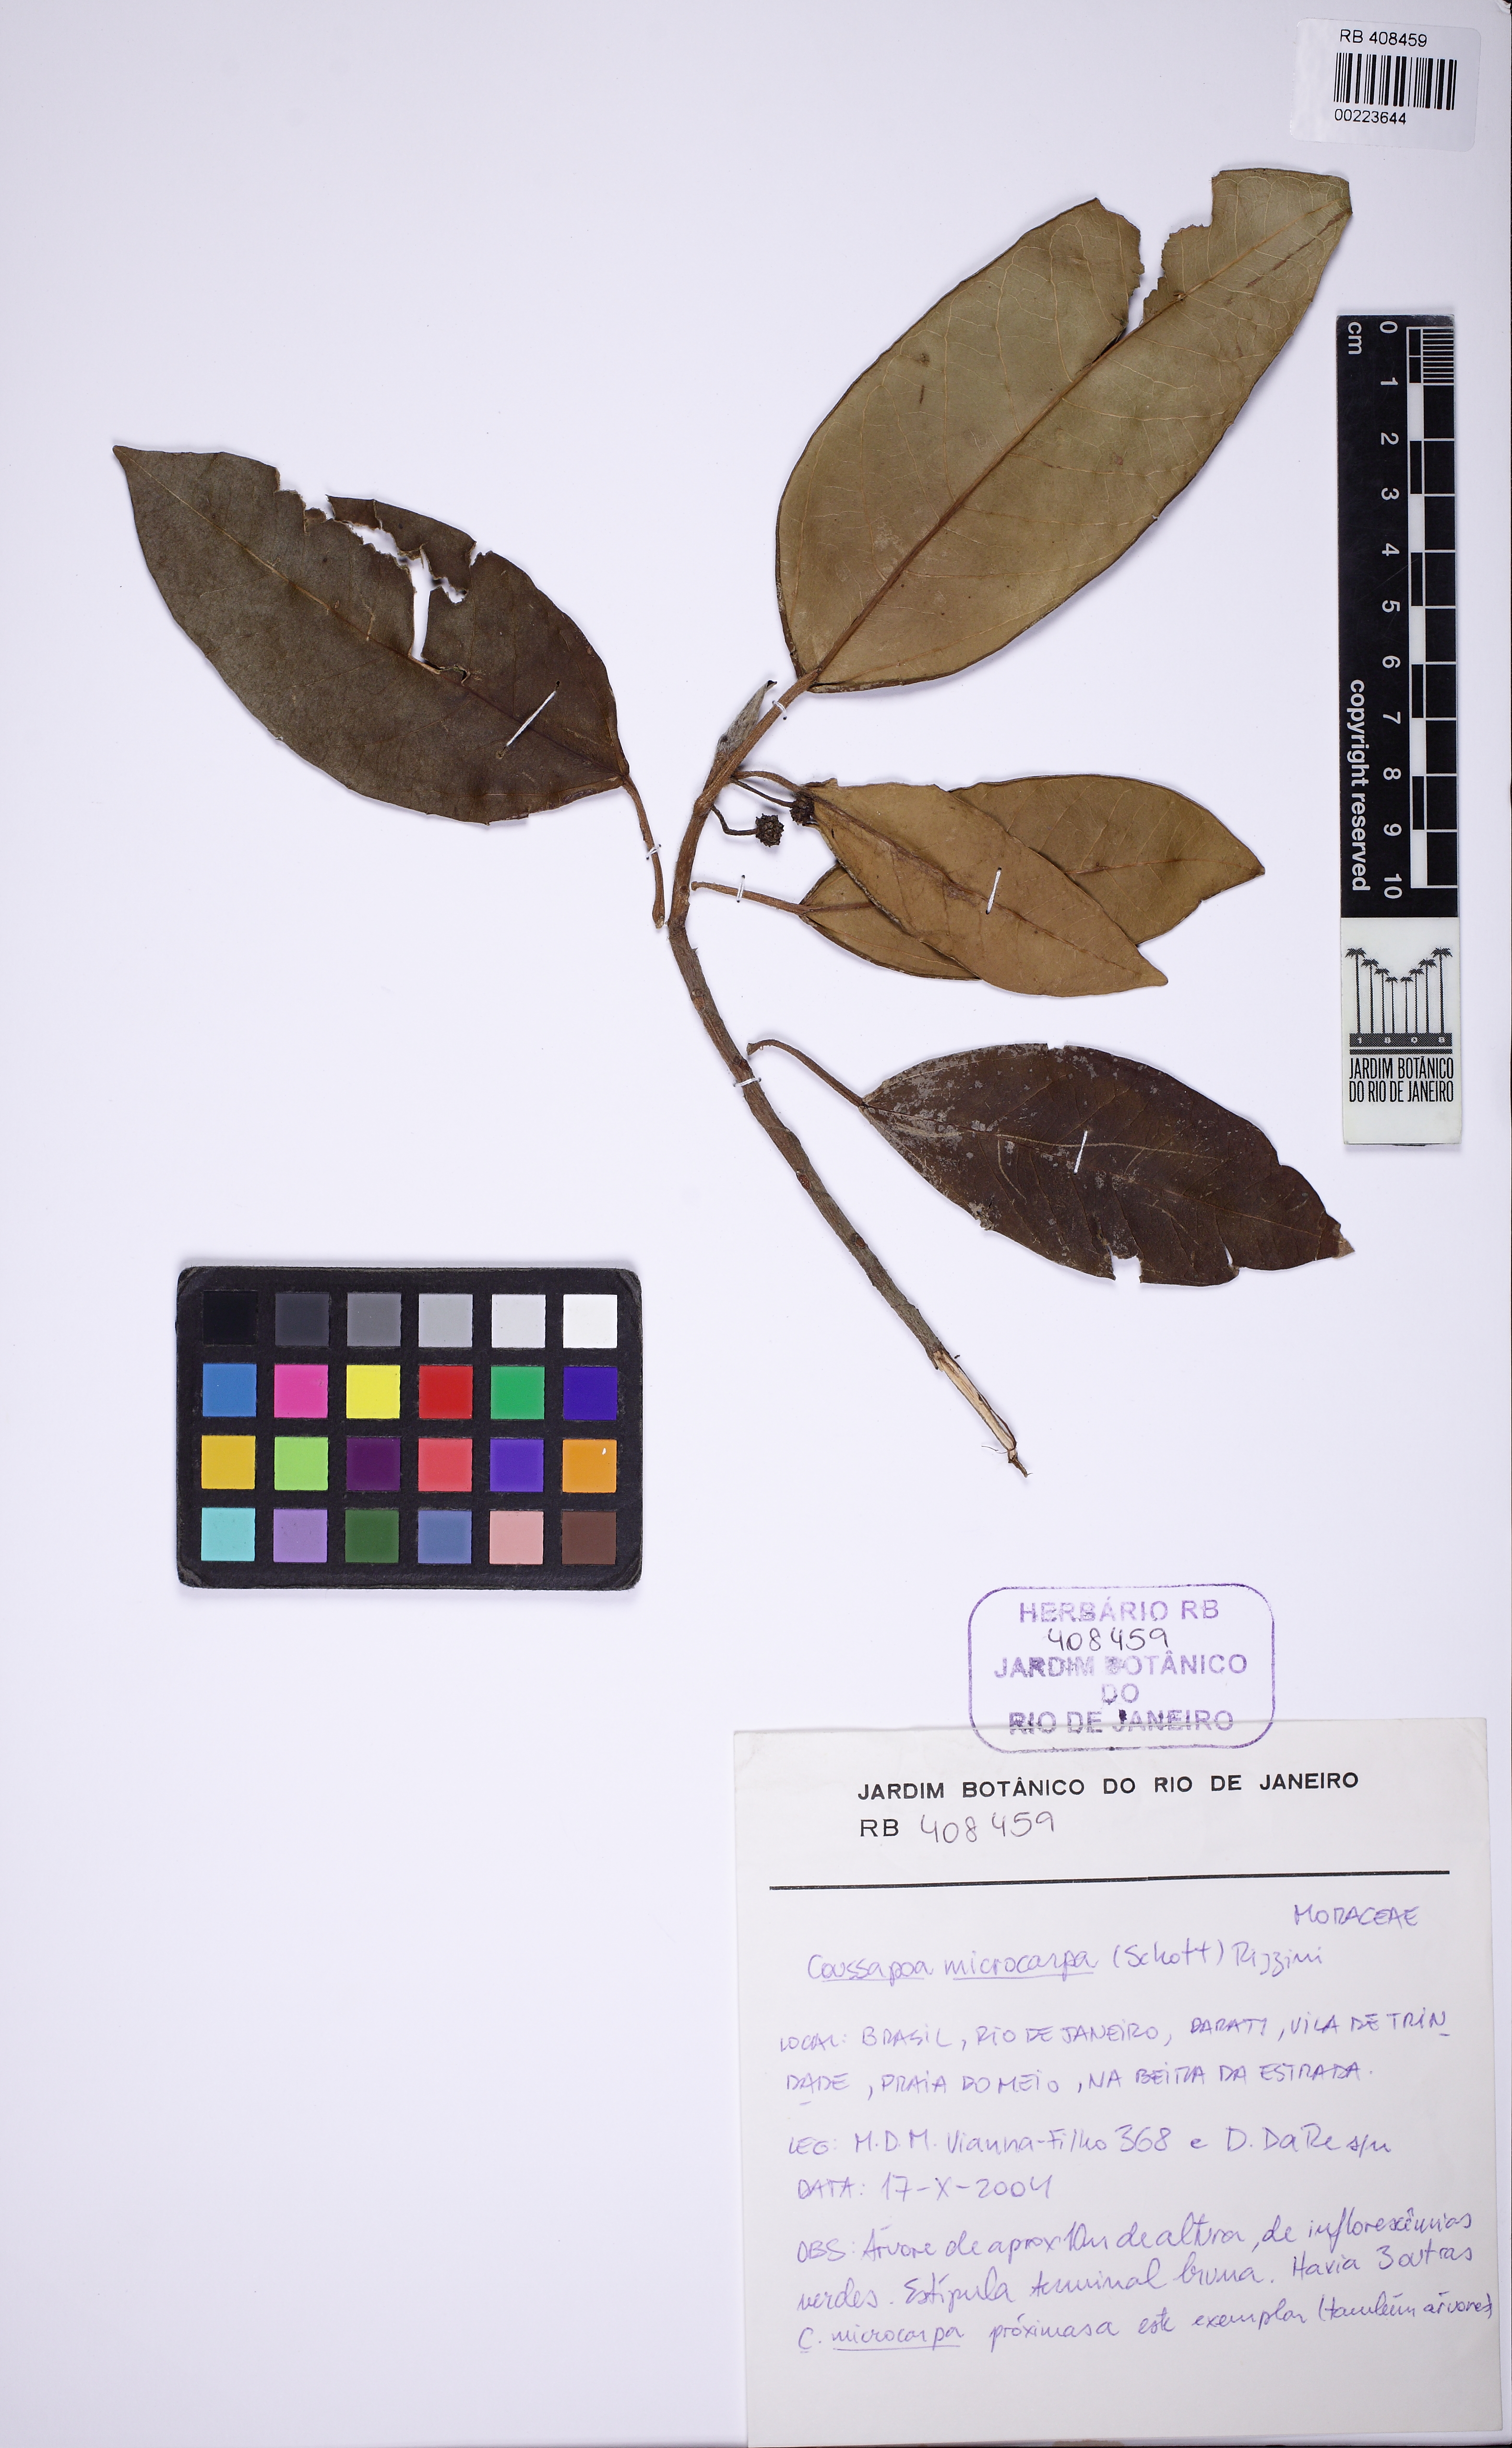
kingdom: Plantae
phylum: Tracheophyta
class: Magnoliopsida
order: Rosales
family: Urticaceae
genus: Coussapoa
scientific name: Coussapoa microcarpa
